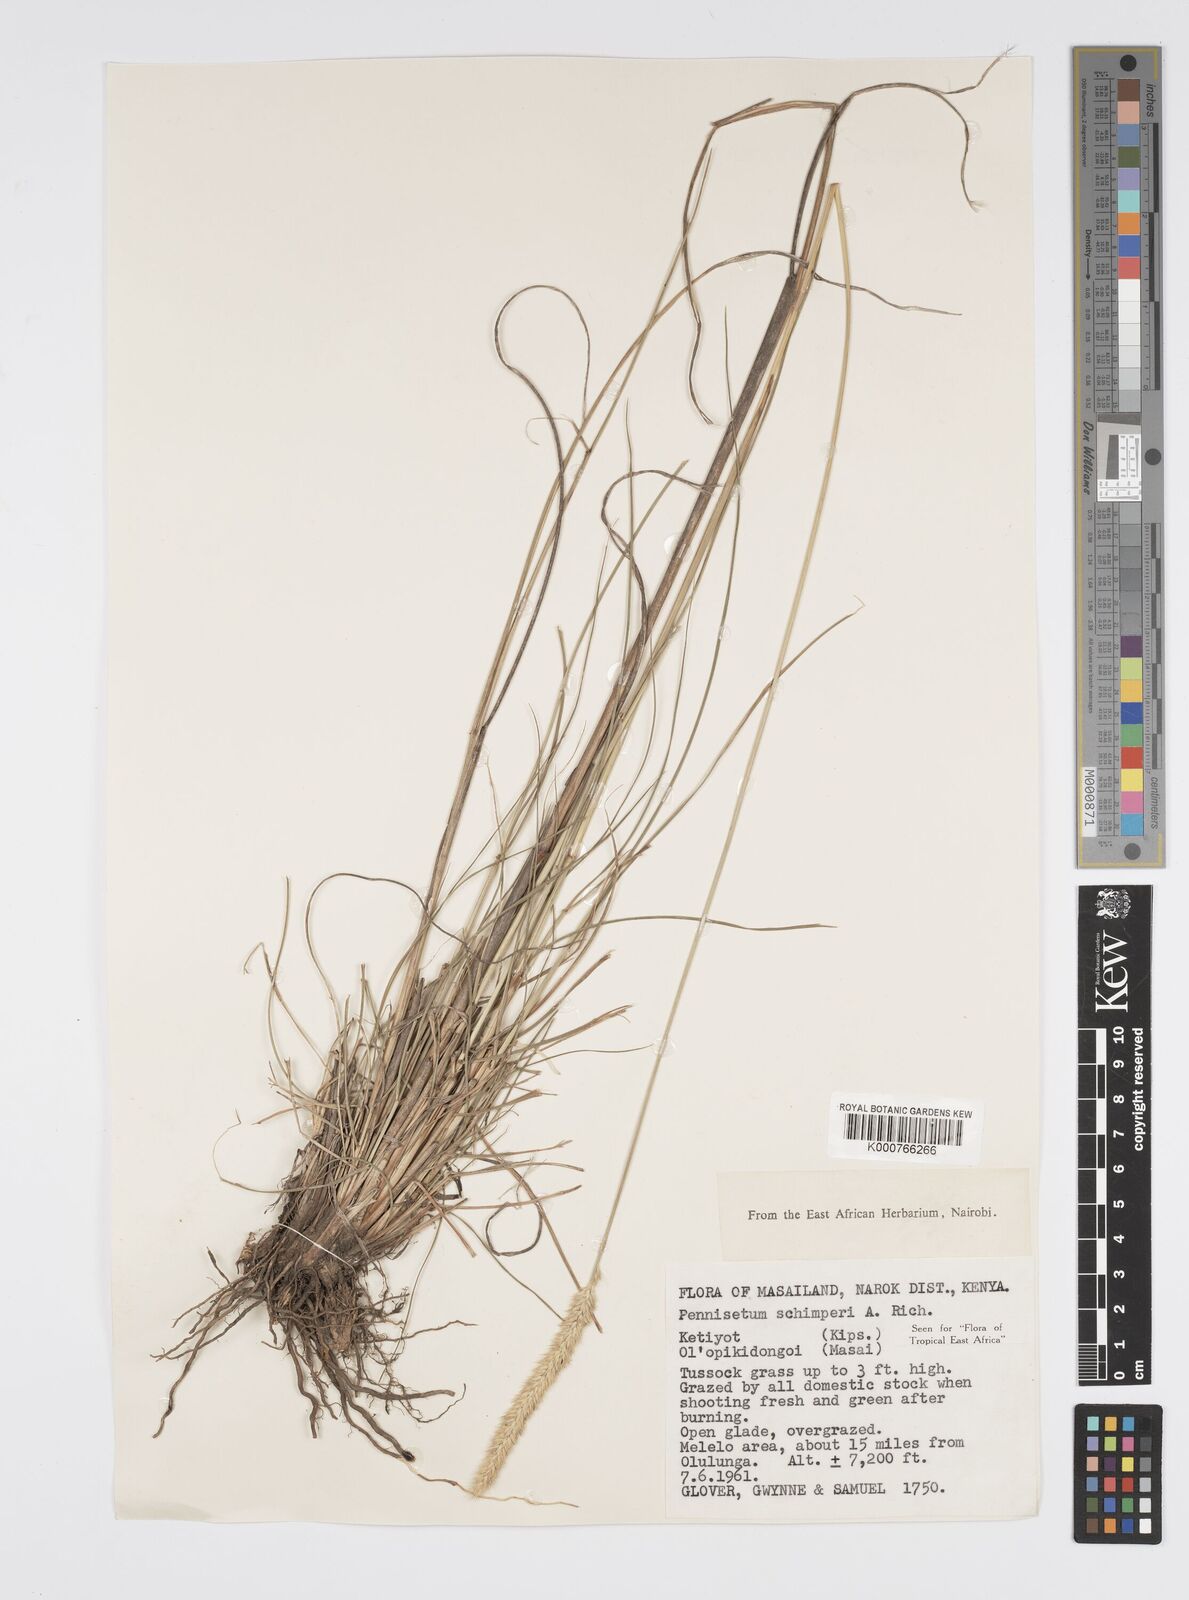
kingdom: Plantae
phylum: Tracheophyta
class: Liliopsida
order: Poales
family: Poaceae
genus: Cenchrus
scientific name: Cenchrus sphacelatus
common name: Bulgras
